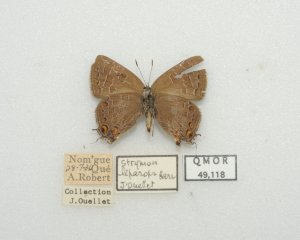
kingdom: Animalia
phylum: Arthropoda
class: Insecta
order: Lepidoptera
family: Lycaenidae
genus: Satyrium
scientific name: Satyrium liparops
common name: Striped Hairstreak
